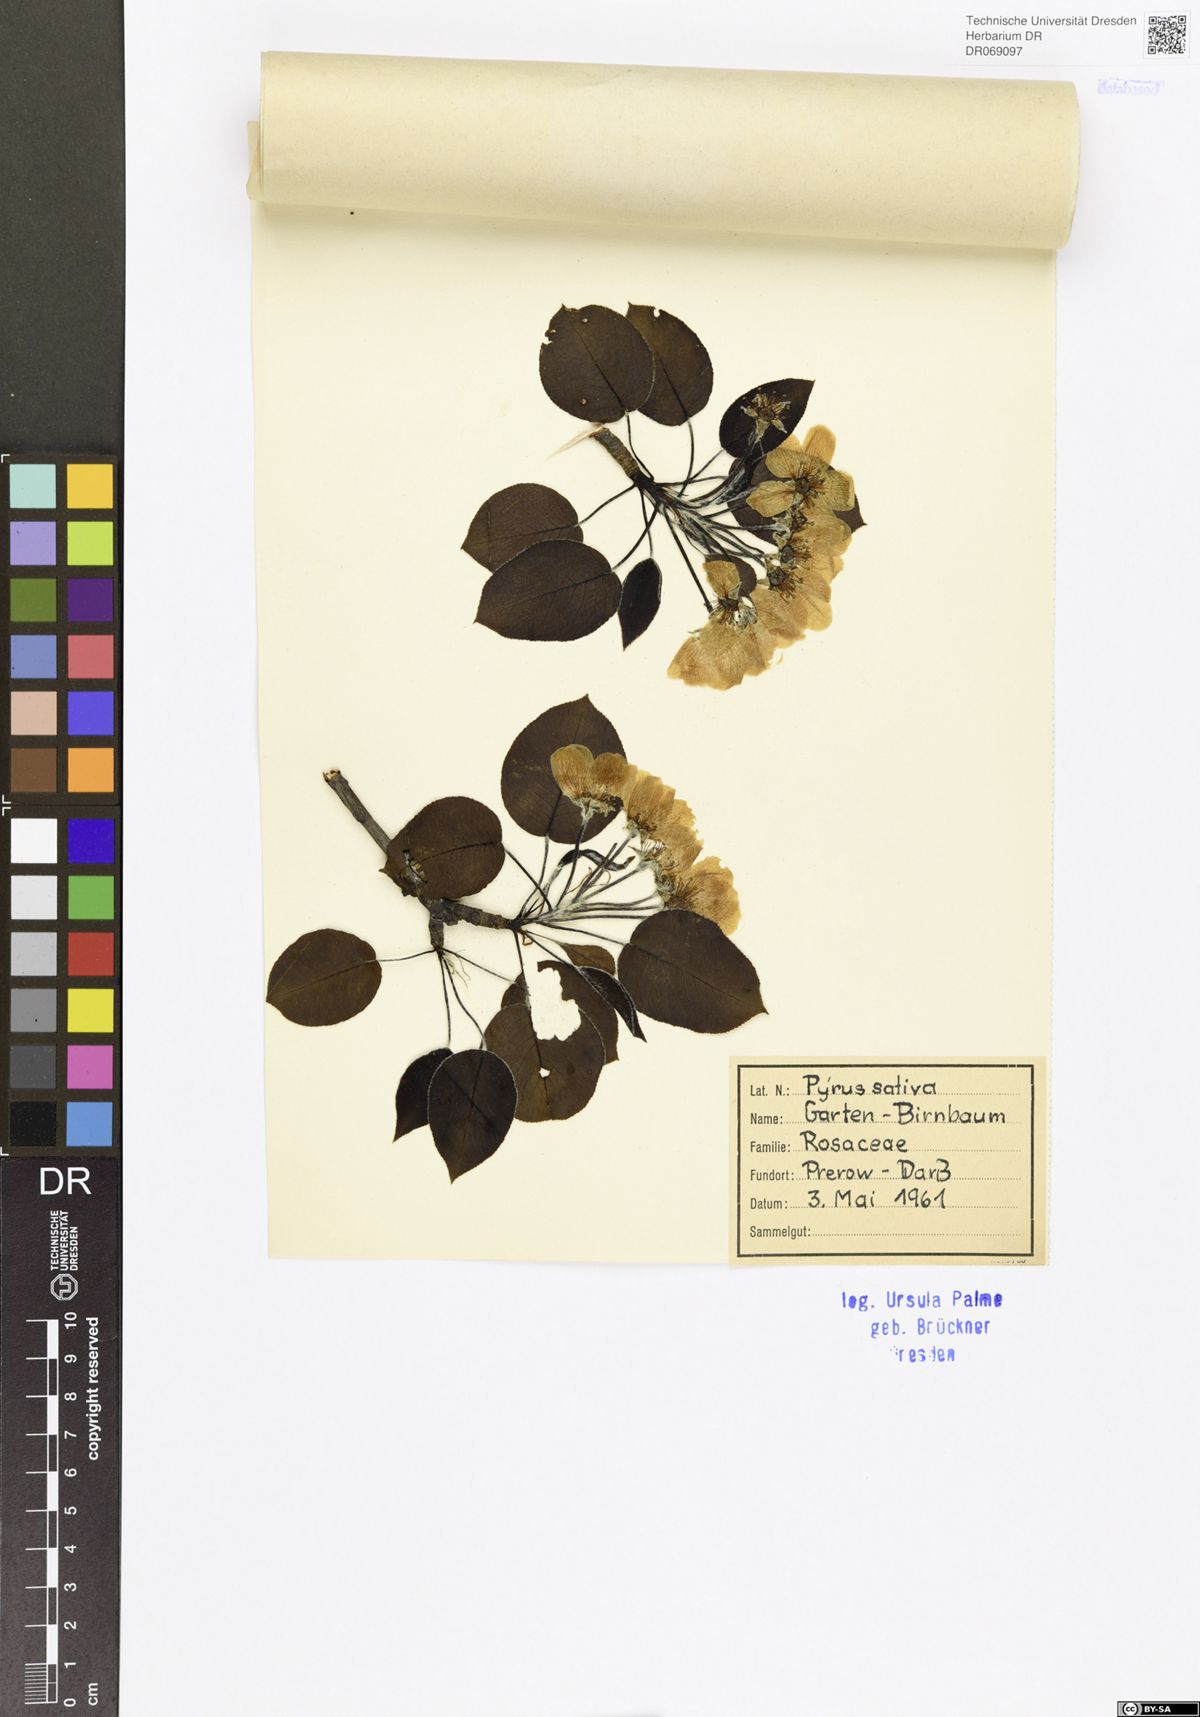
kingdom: Plantae
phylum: Tracheophyta
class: Magnoliopsida
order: Rosales
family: Rosaceae
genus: Pyrus
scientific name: Pyrus communis
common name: Pear
